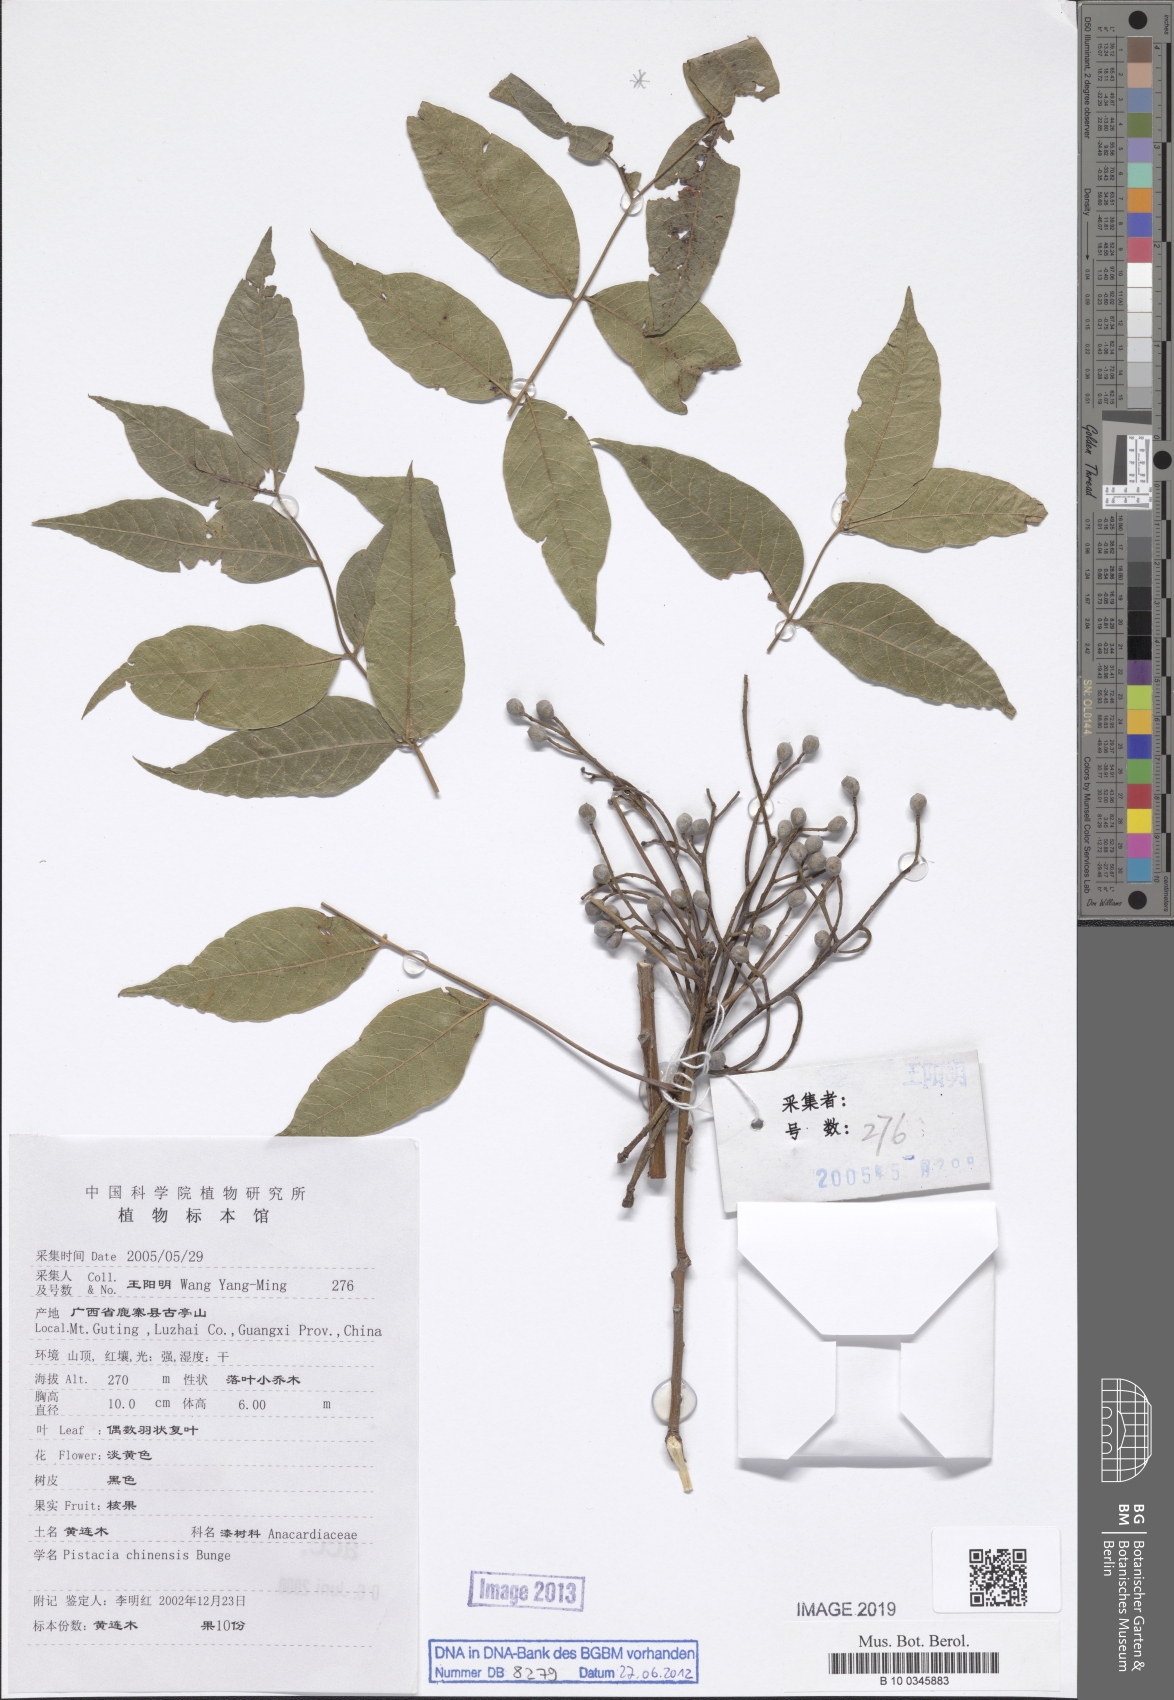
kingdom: Plantae
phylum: Tracheophyta
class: Magnoliopsida
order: Sapindales
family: Anacardiaceae
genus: Pistacia
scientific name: Pistacia chinensis
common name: Chinese pistache
